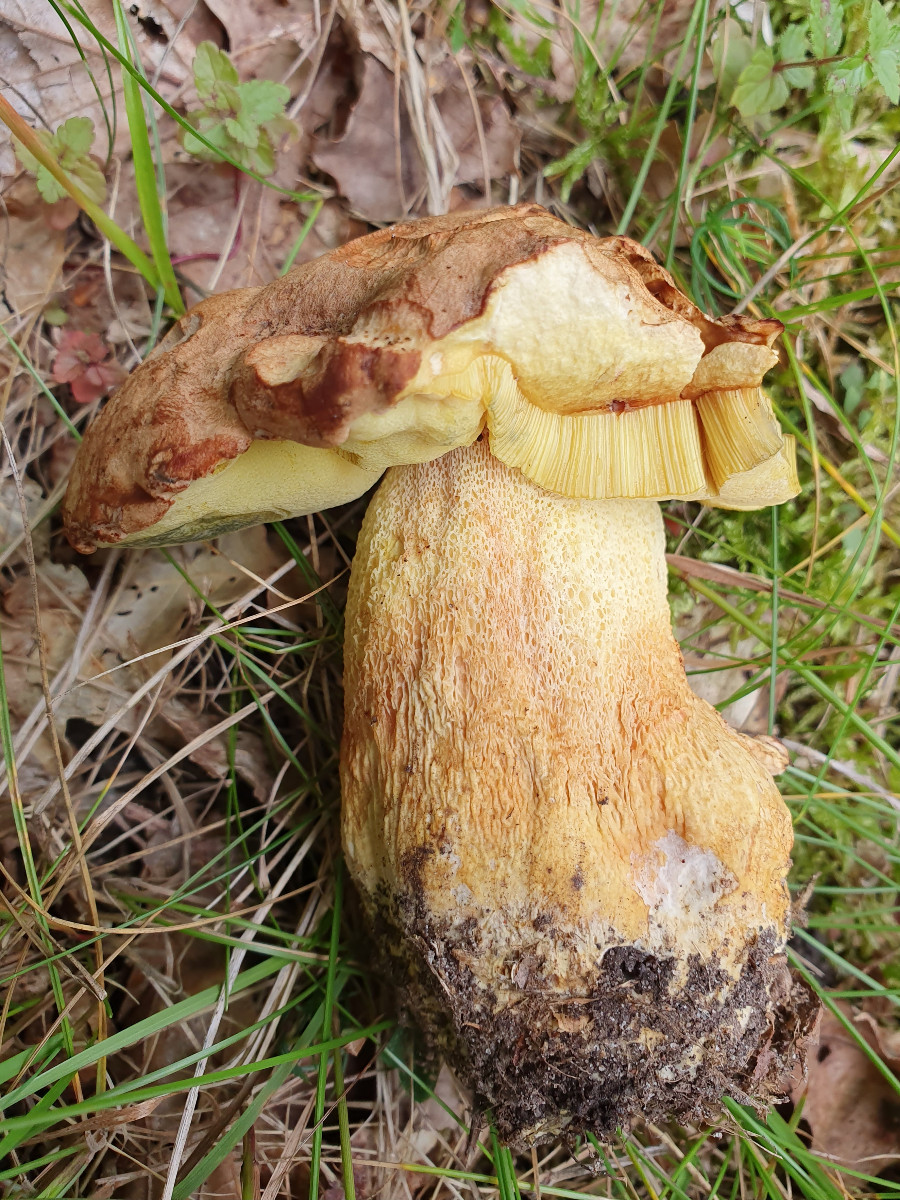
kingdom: Fungi
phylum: Basidiomycota
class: Agaricomycetes
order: Boletales
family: Boletaceae
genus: Butyriboletus
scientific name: Butyriboletus appendiculatus
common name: tenstokket rørhat
